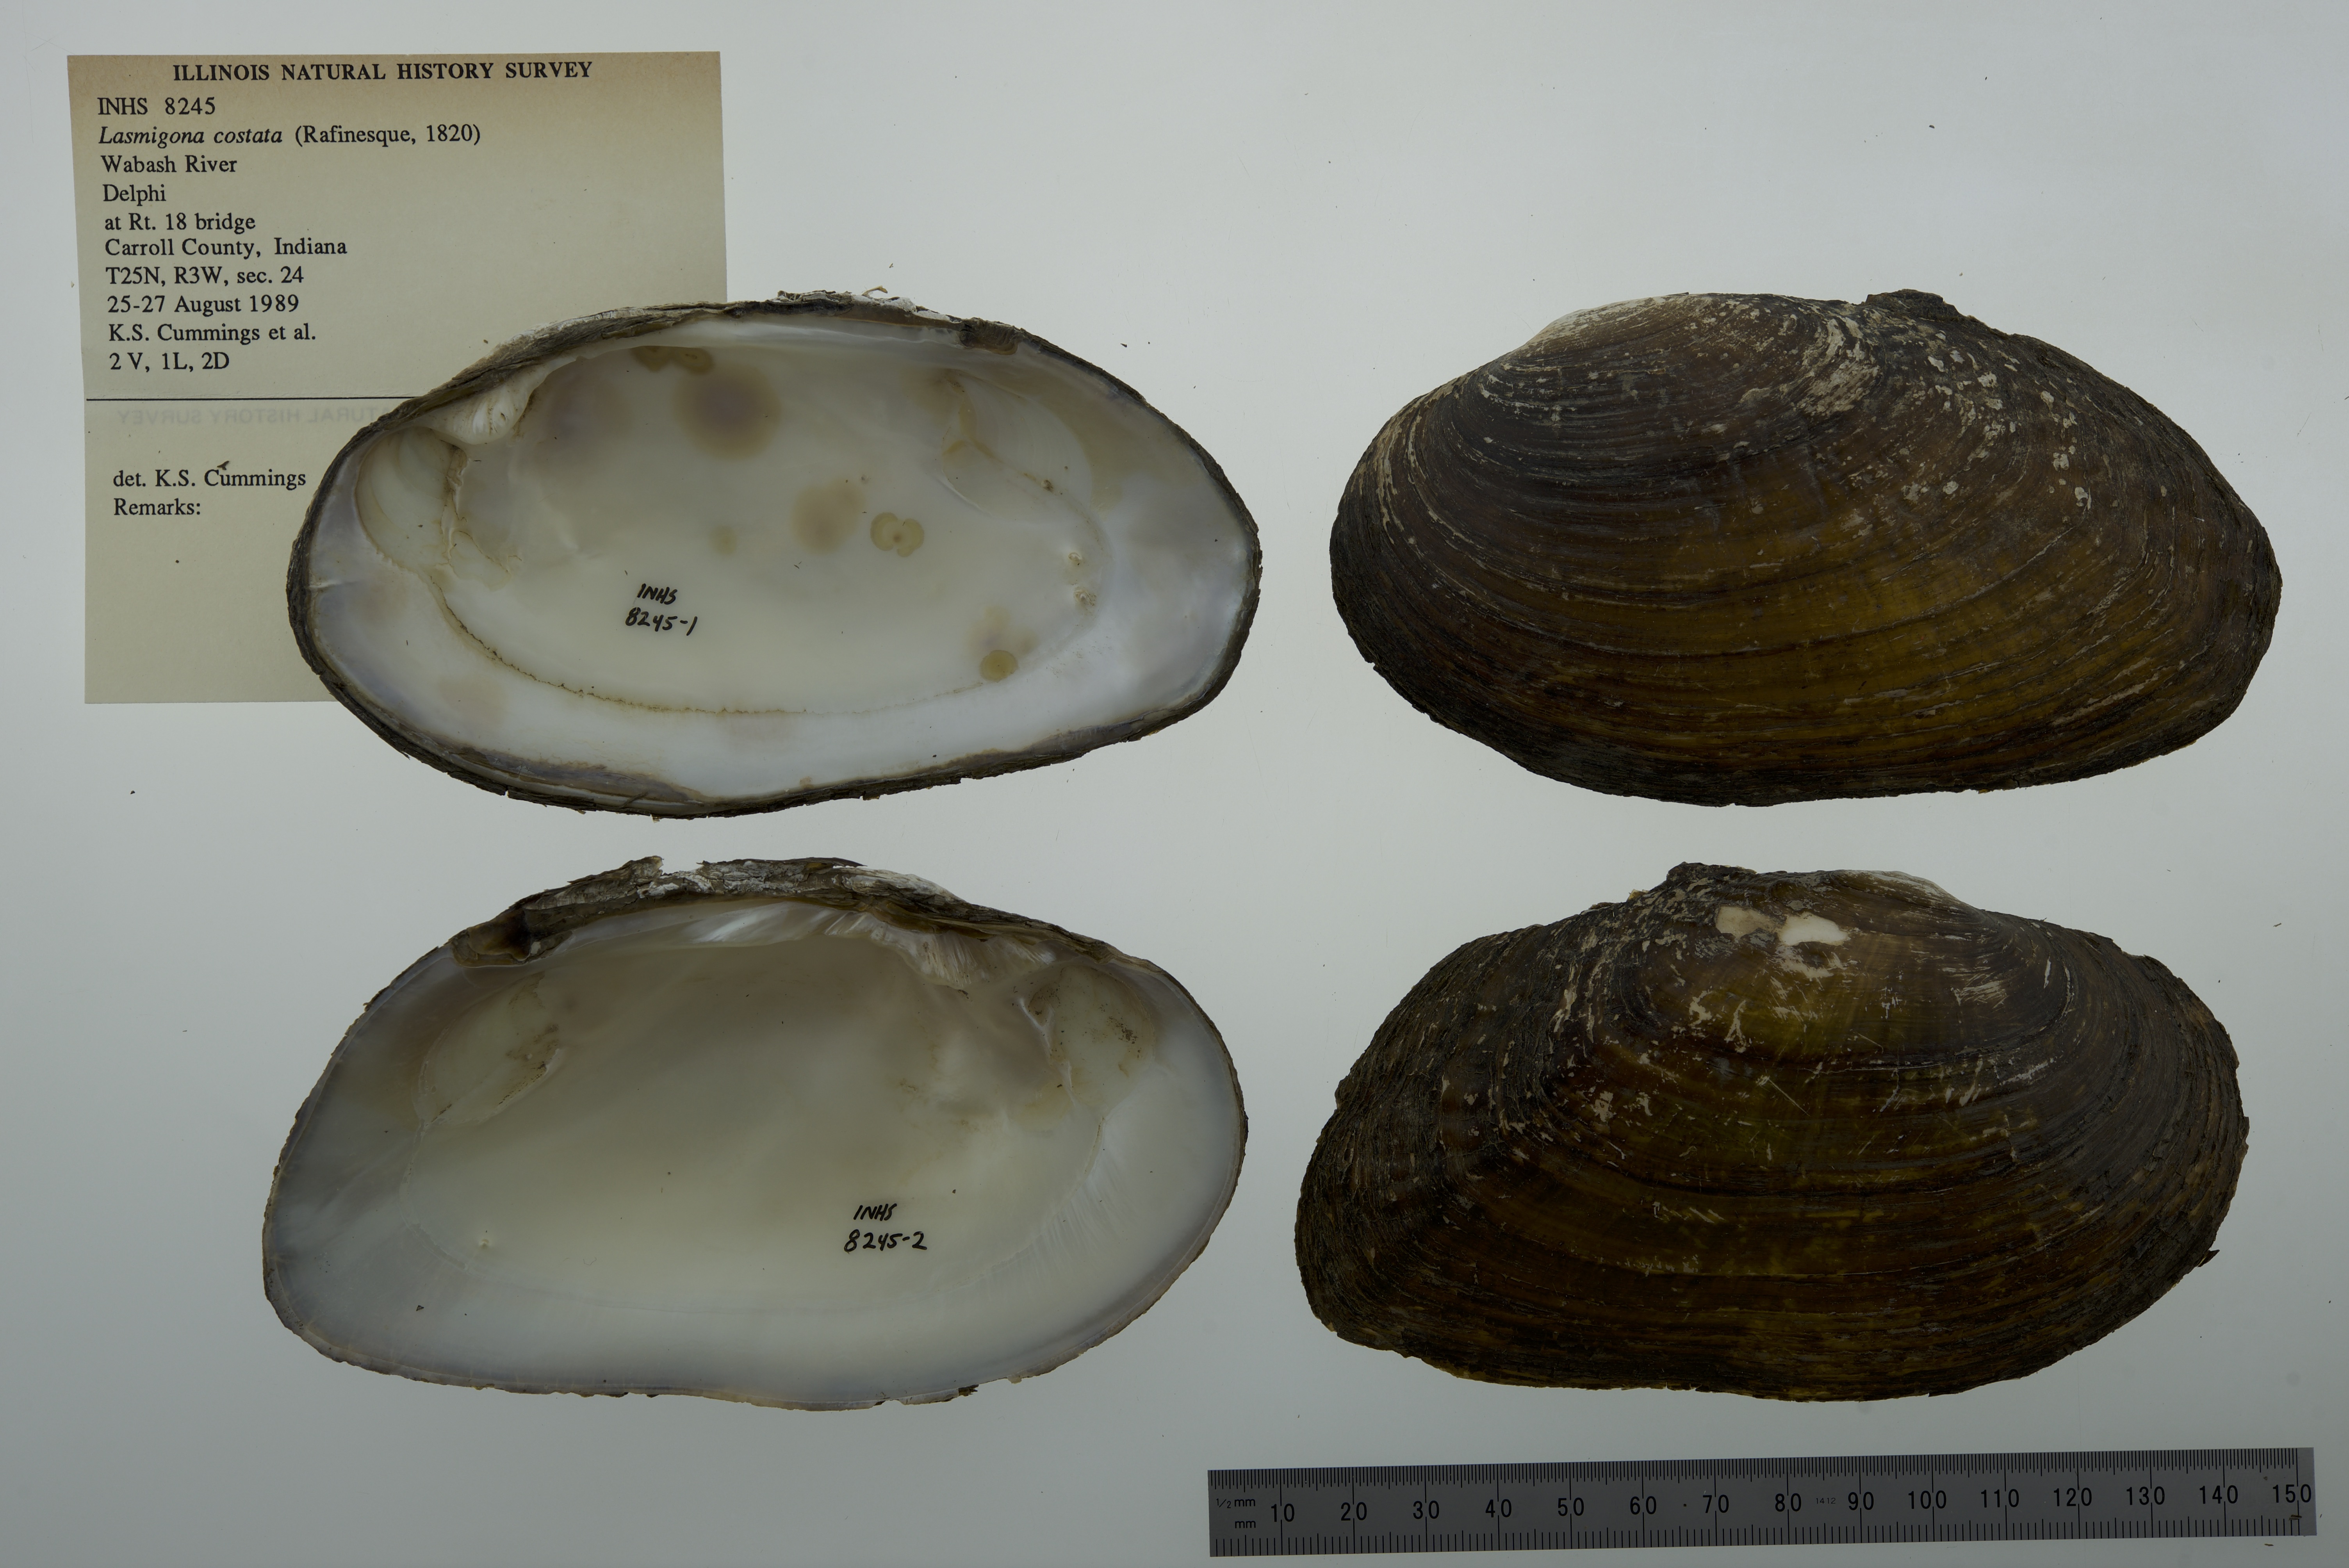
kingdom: Animalia
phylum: Mollusca
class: Bivalvia
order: Unionida
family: Unionidae
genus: Lasmigona
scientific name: Lasmigona costata
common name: Flutedshell
